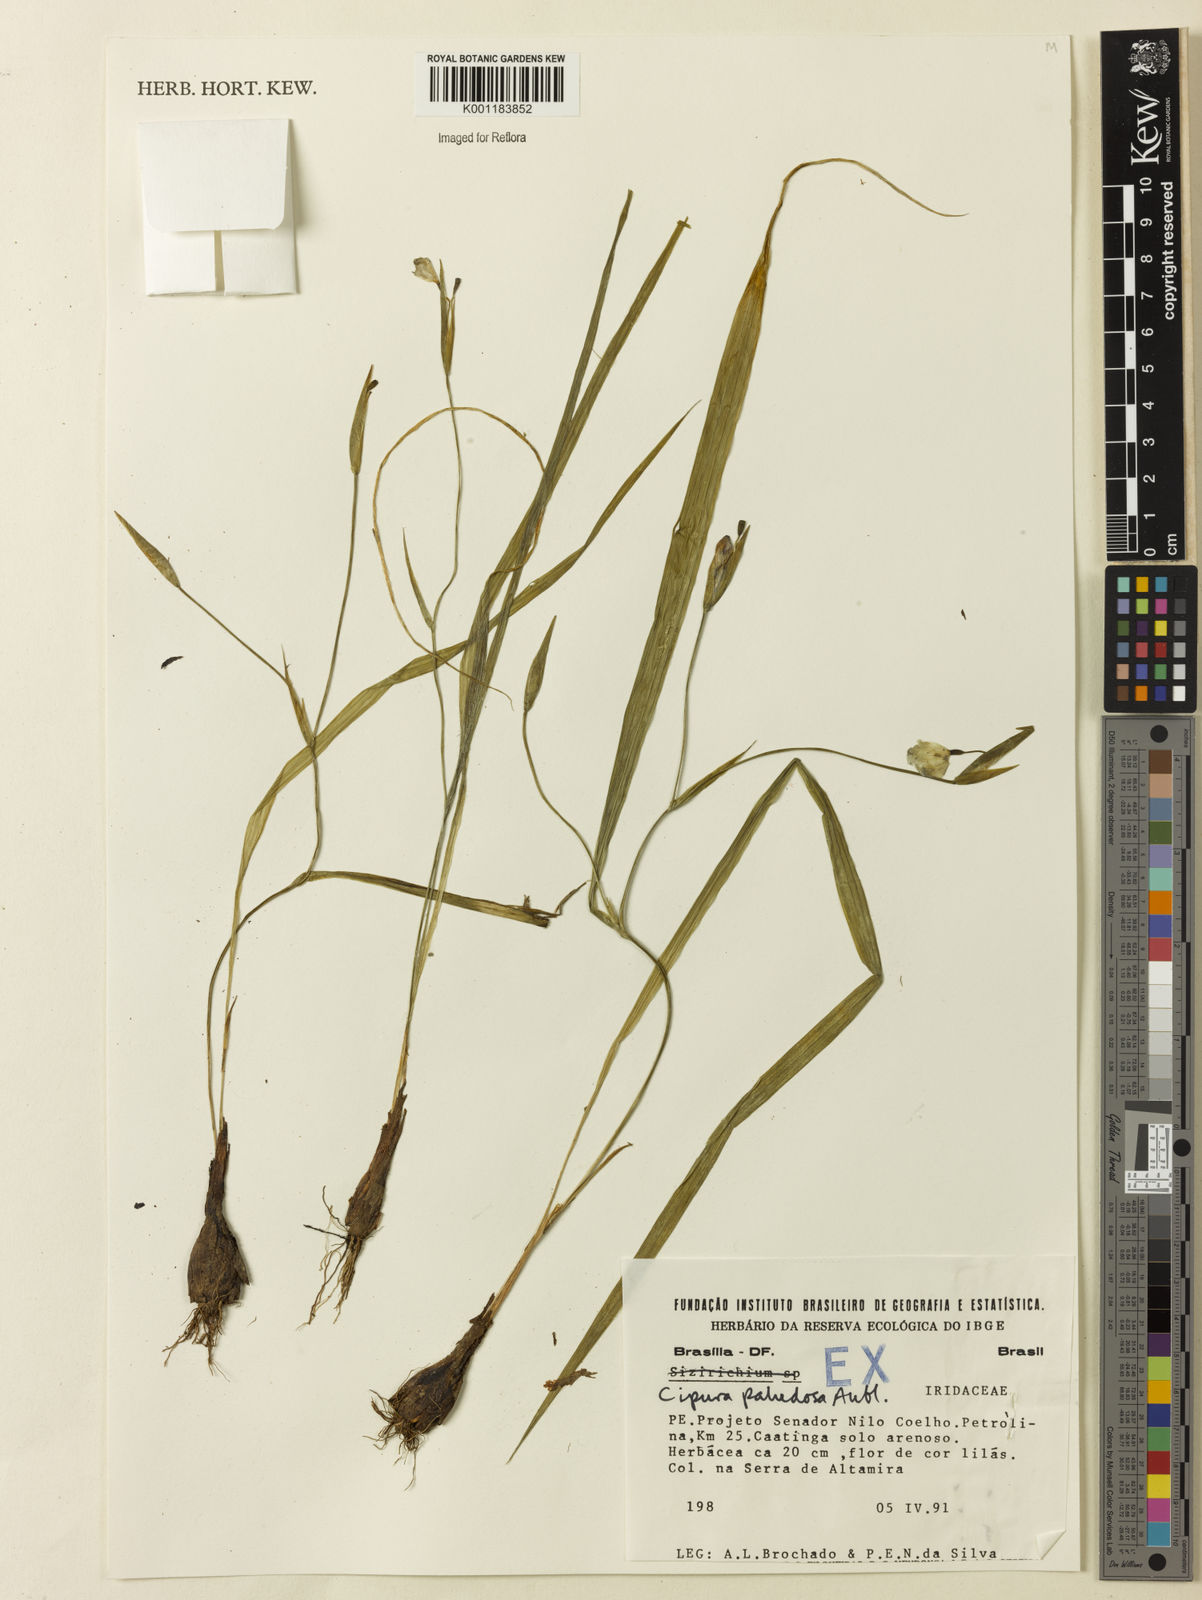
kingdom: Plantae
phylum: Tracheophyta
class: Liliopsida
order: Asparagales
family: Iridaceae
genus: Cipura
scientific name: Cipura paludosa
